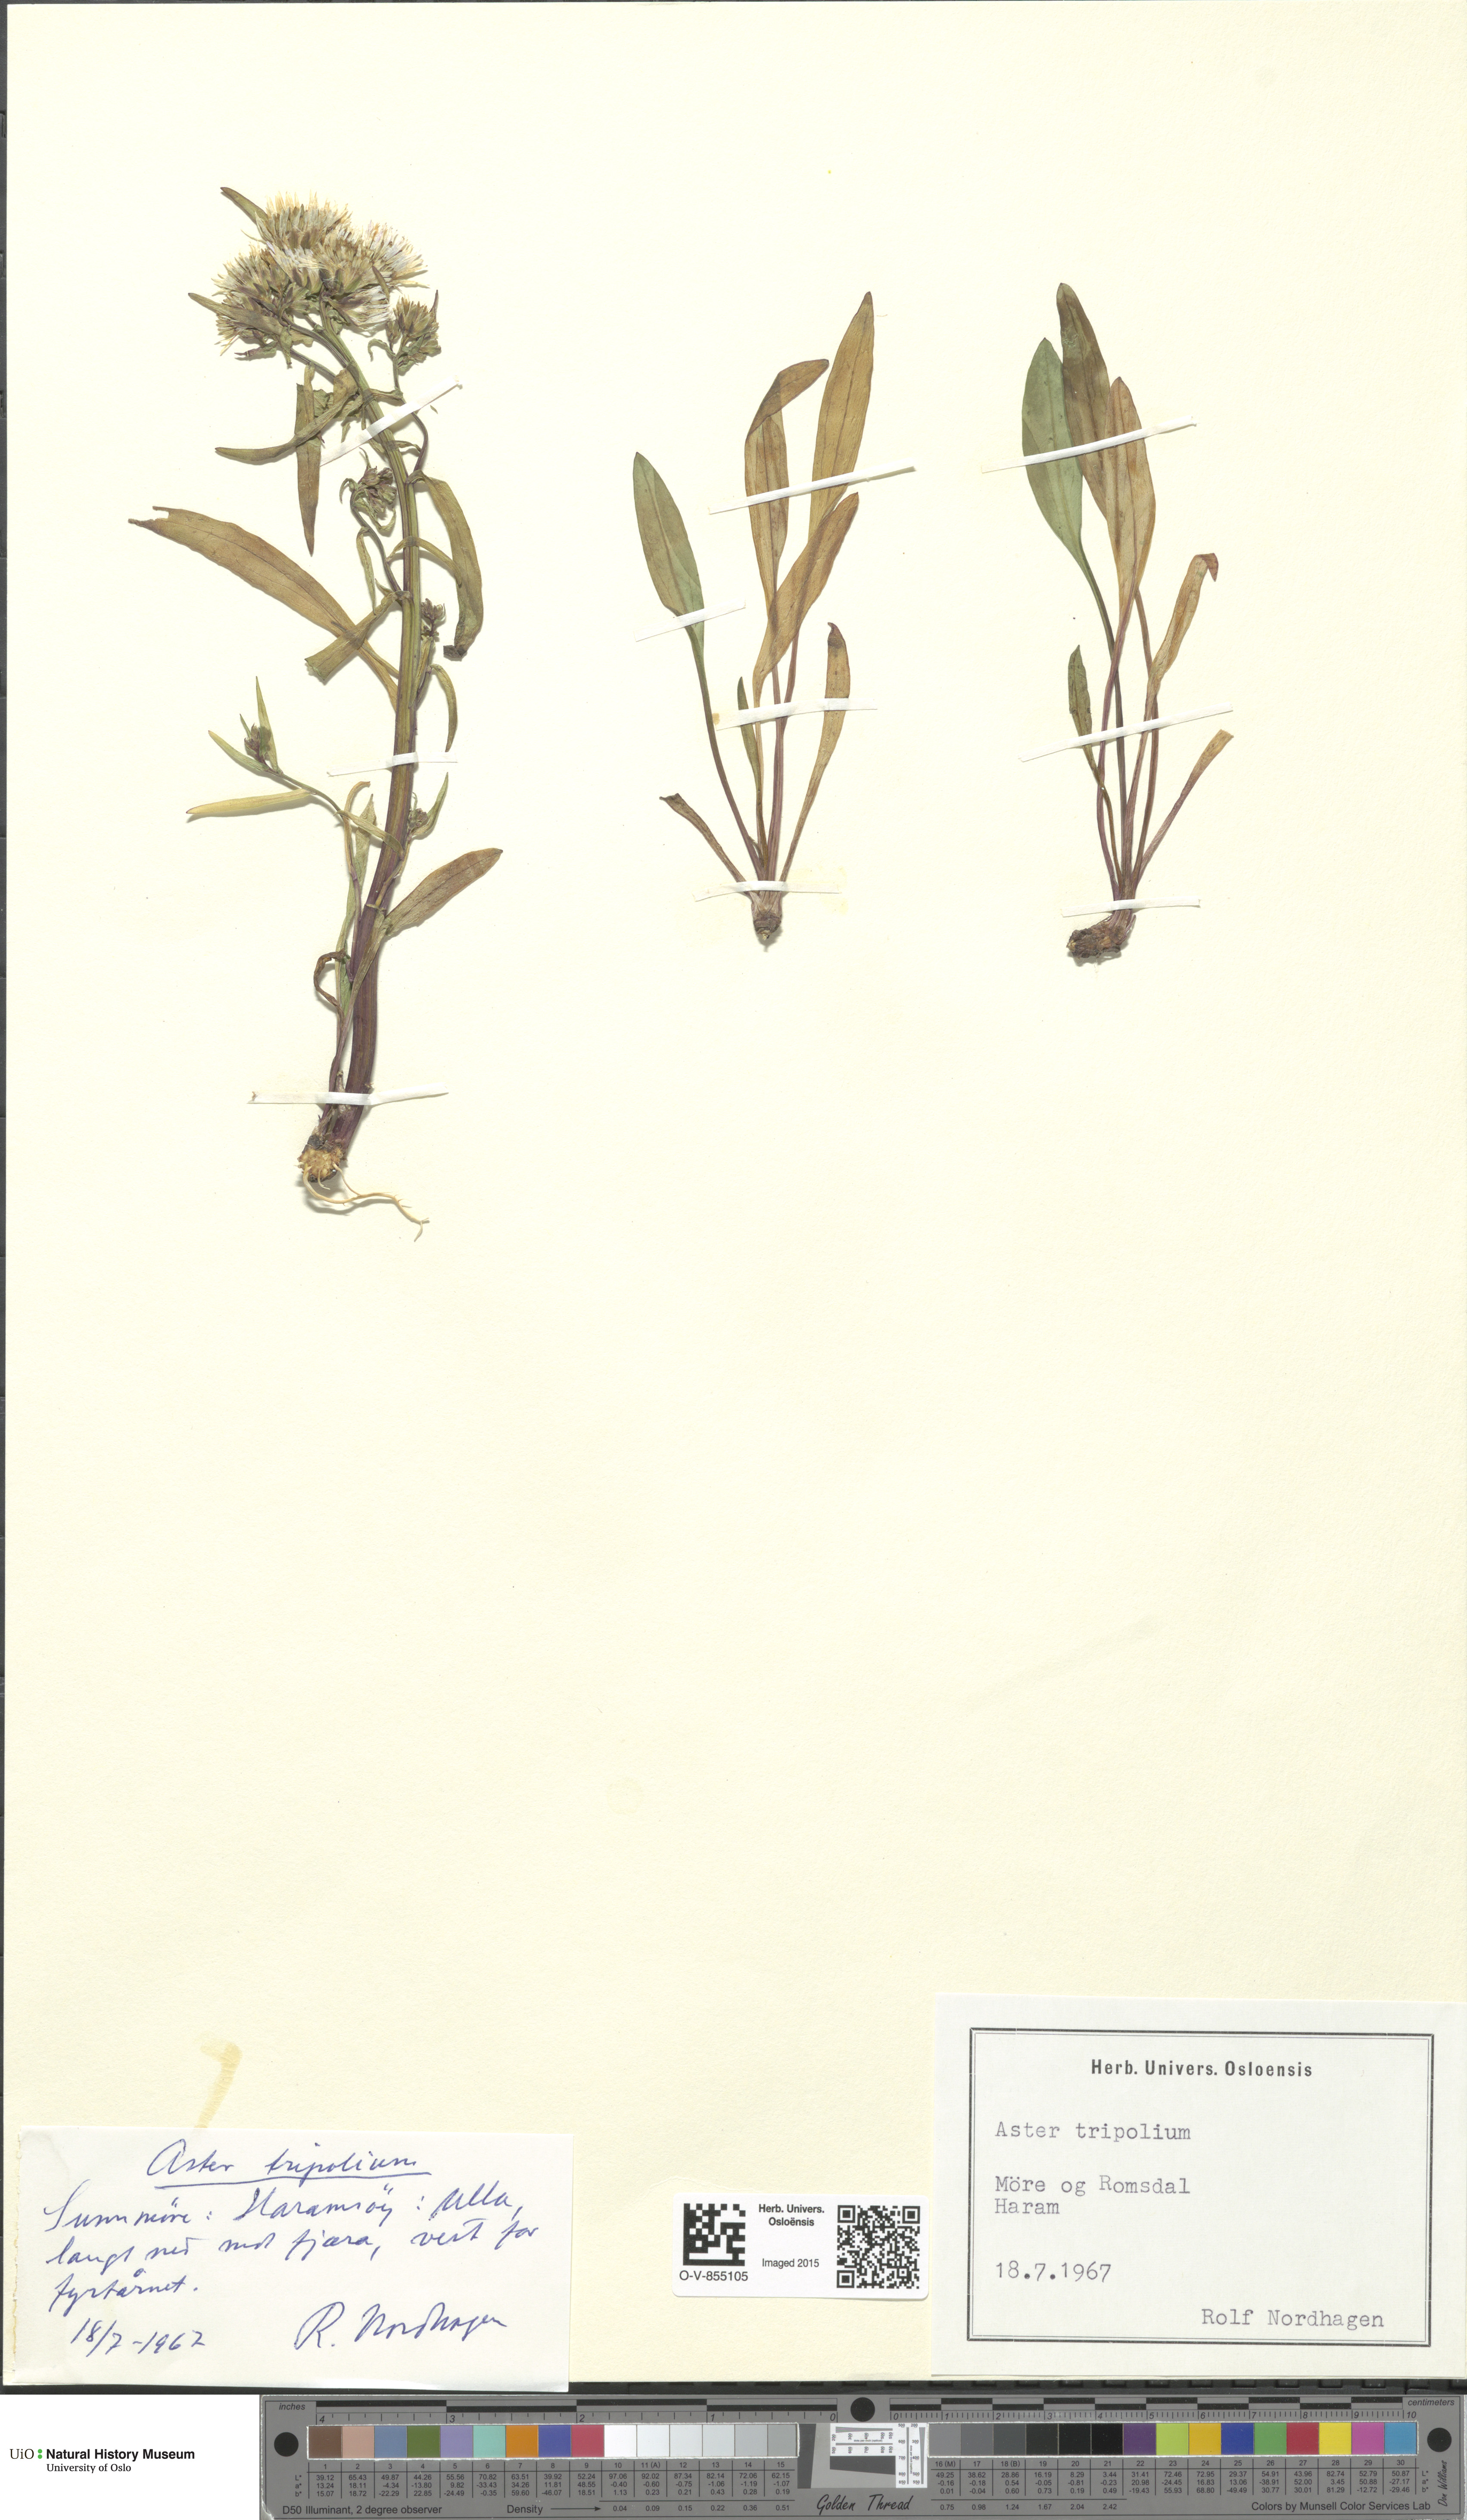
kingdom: Plantae
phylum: Tracheophyta
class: Magnoliopsida
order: Asterales
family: Asteraceae
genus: Tripolium
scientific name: Tripolium pannonicum
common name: Sea aster
